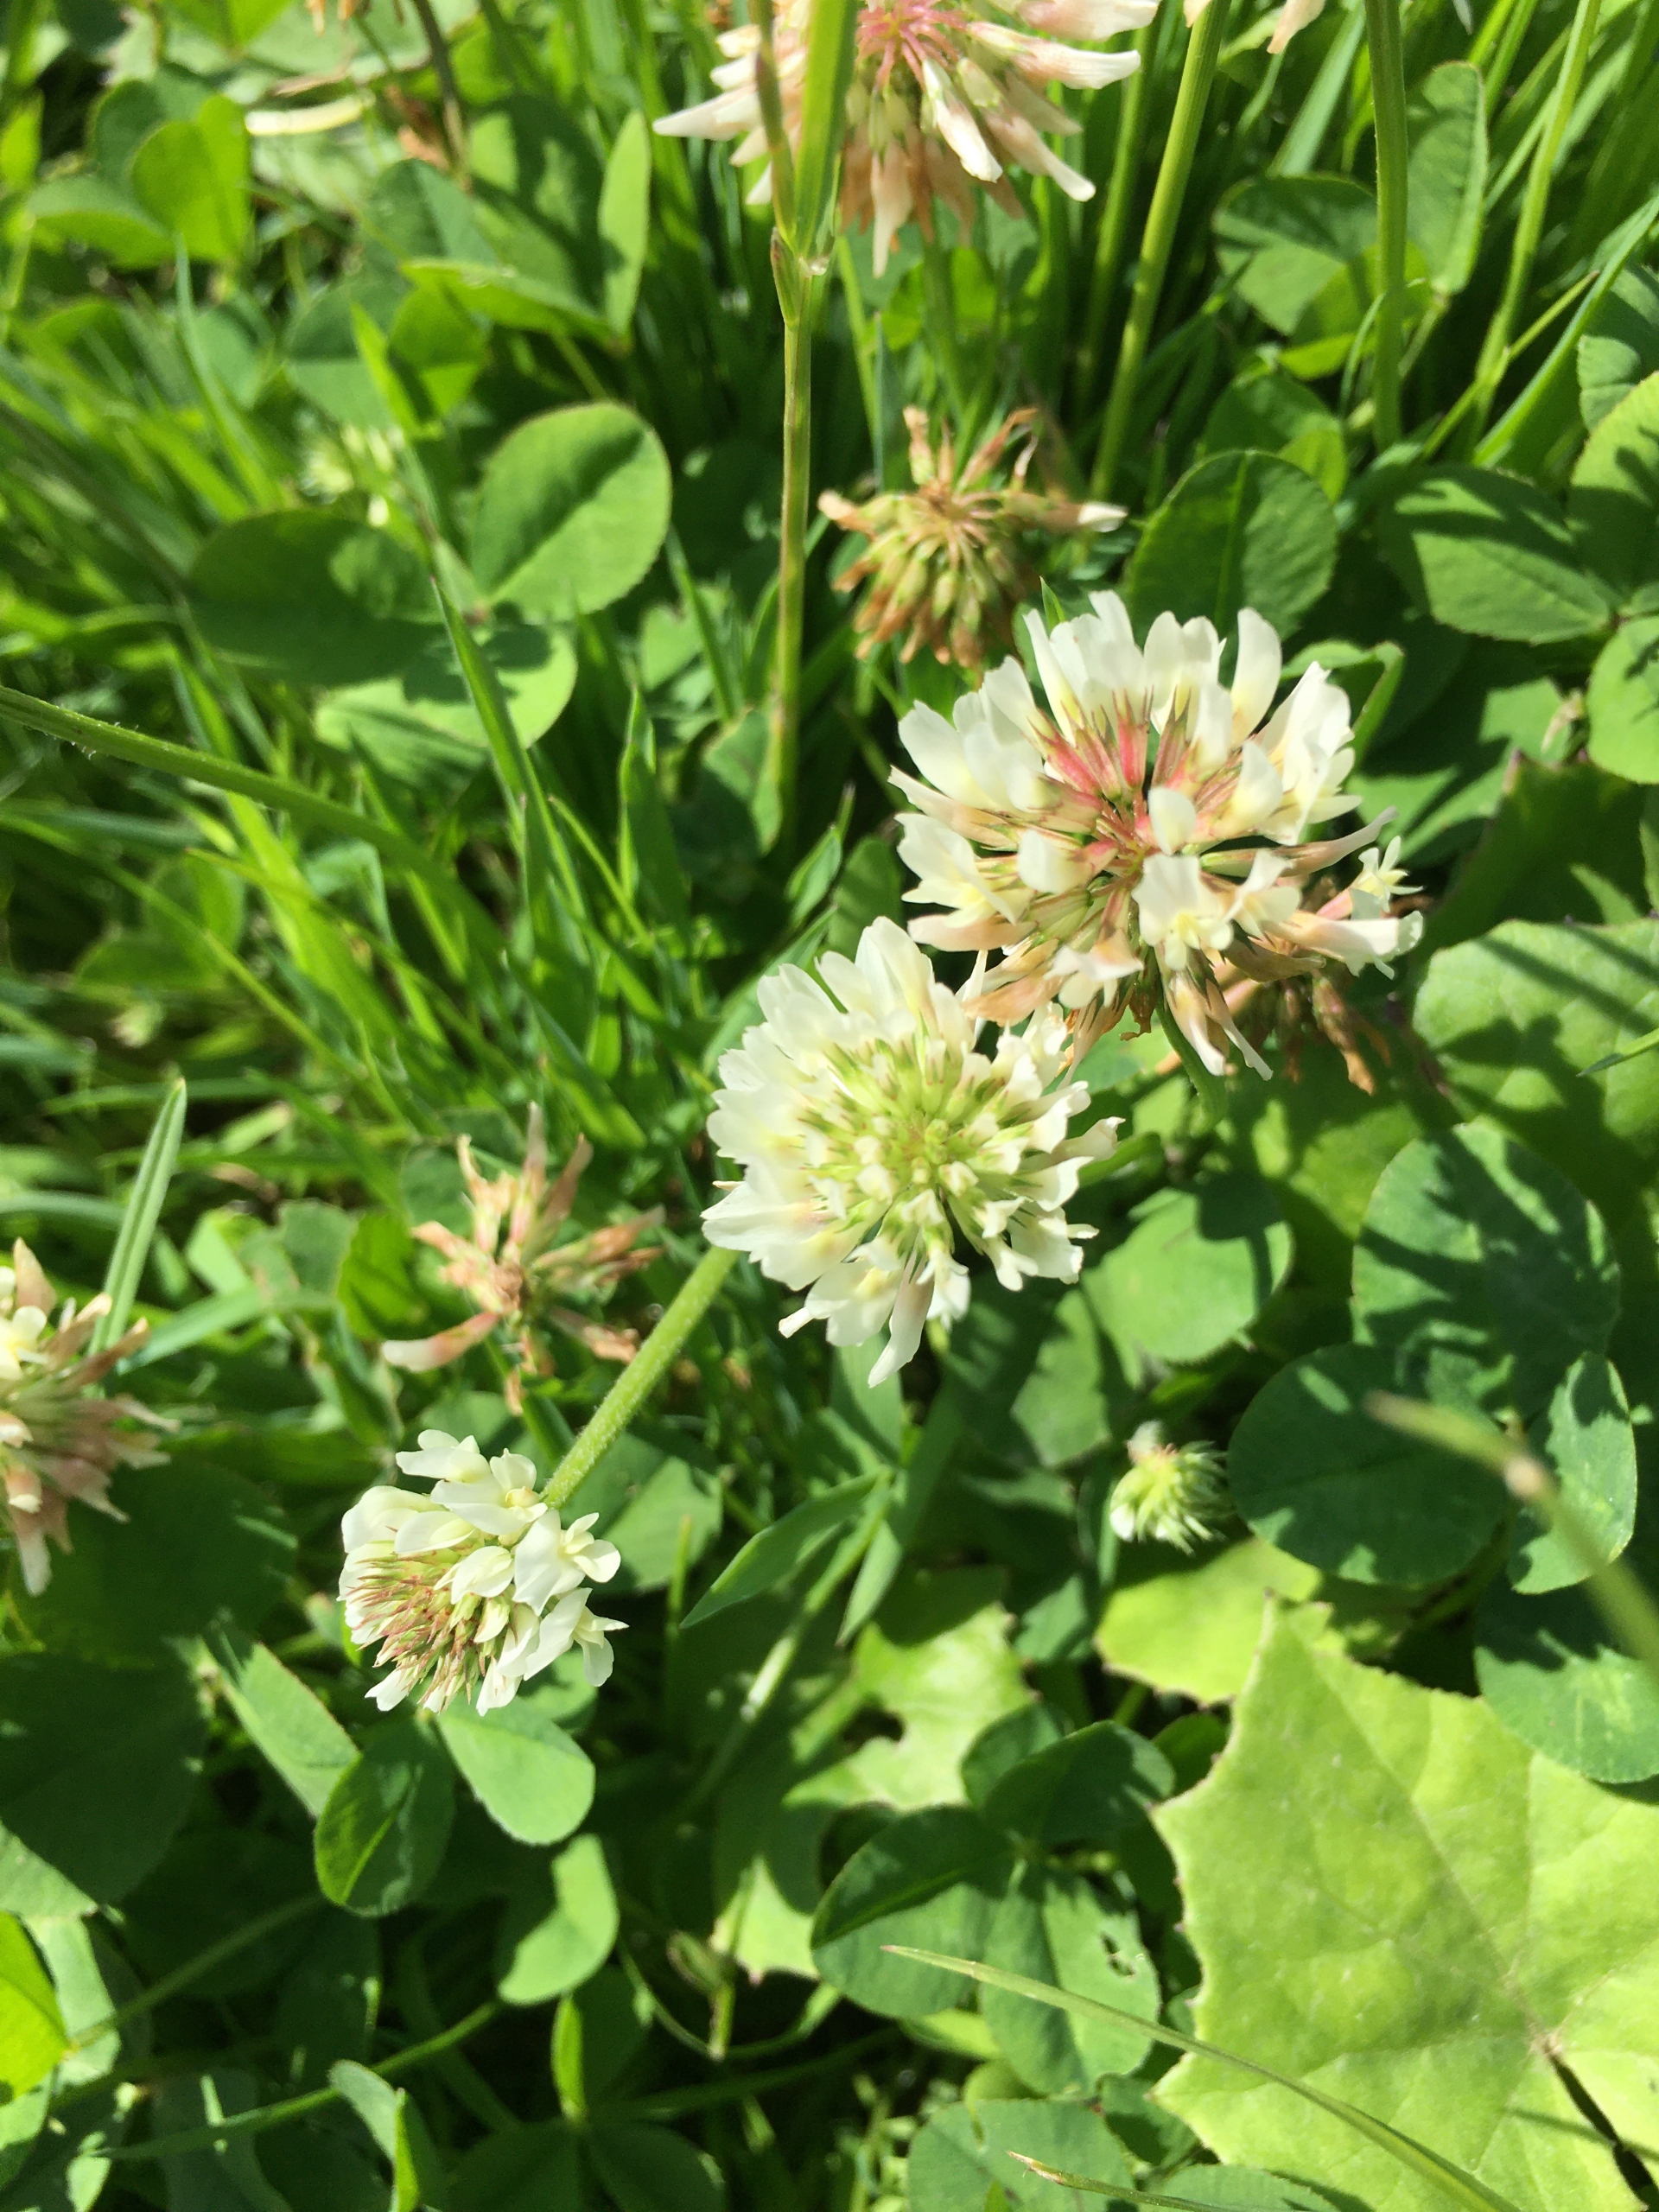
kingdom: Plantae
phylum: Tracheophyta
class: Magnoliopsida
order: Fabales
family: Fabaceae
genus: Trifolium
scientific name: Trifolium repens
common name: Hvid-kløver
